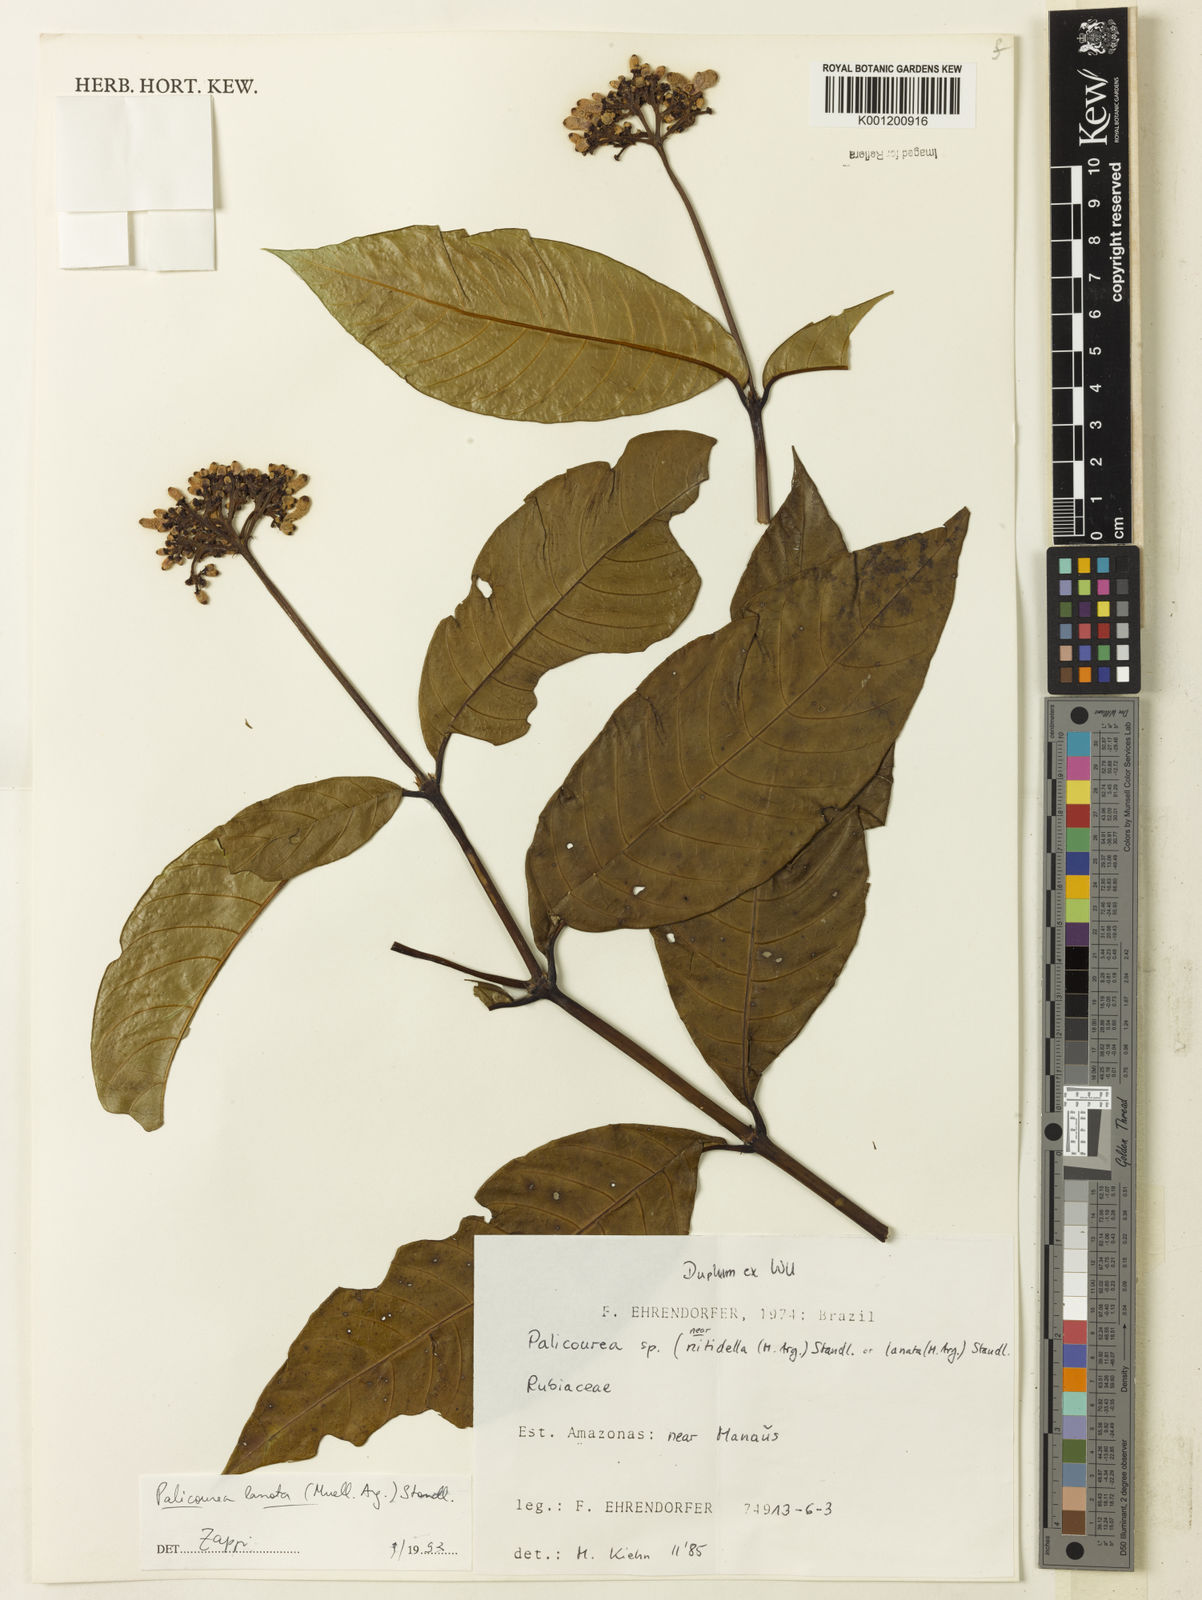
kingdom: Plantae
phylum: Tracheophyta
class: Magnoliopsida
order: Gentianales
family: Rubiaceae
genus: Palicourea
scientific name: Palicourea
